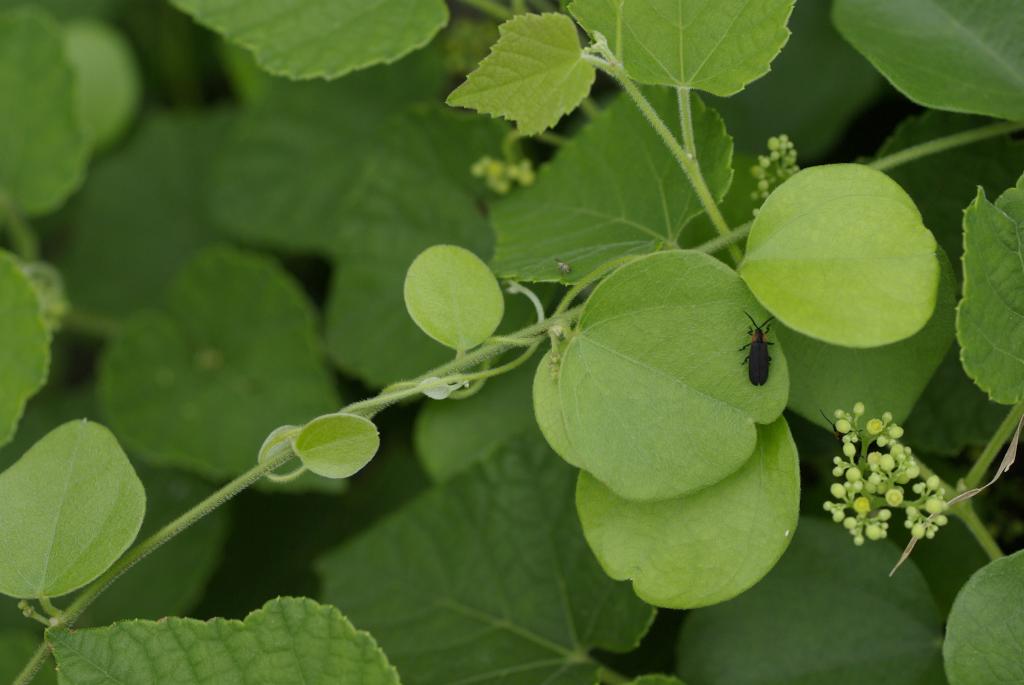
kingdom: Plantae
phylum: Tracheophyta
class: Magnoliopsida
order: Ranunculales
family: Menispermaceae
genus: Cocculus
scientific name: Cocculus orbiculatus
